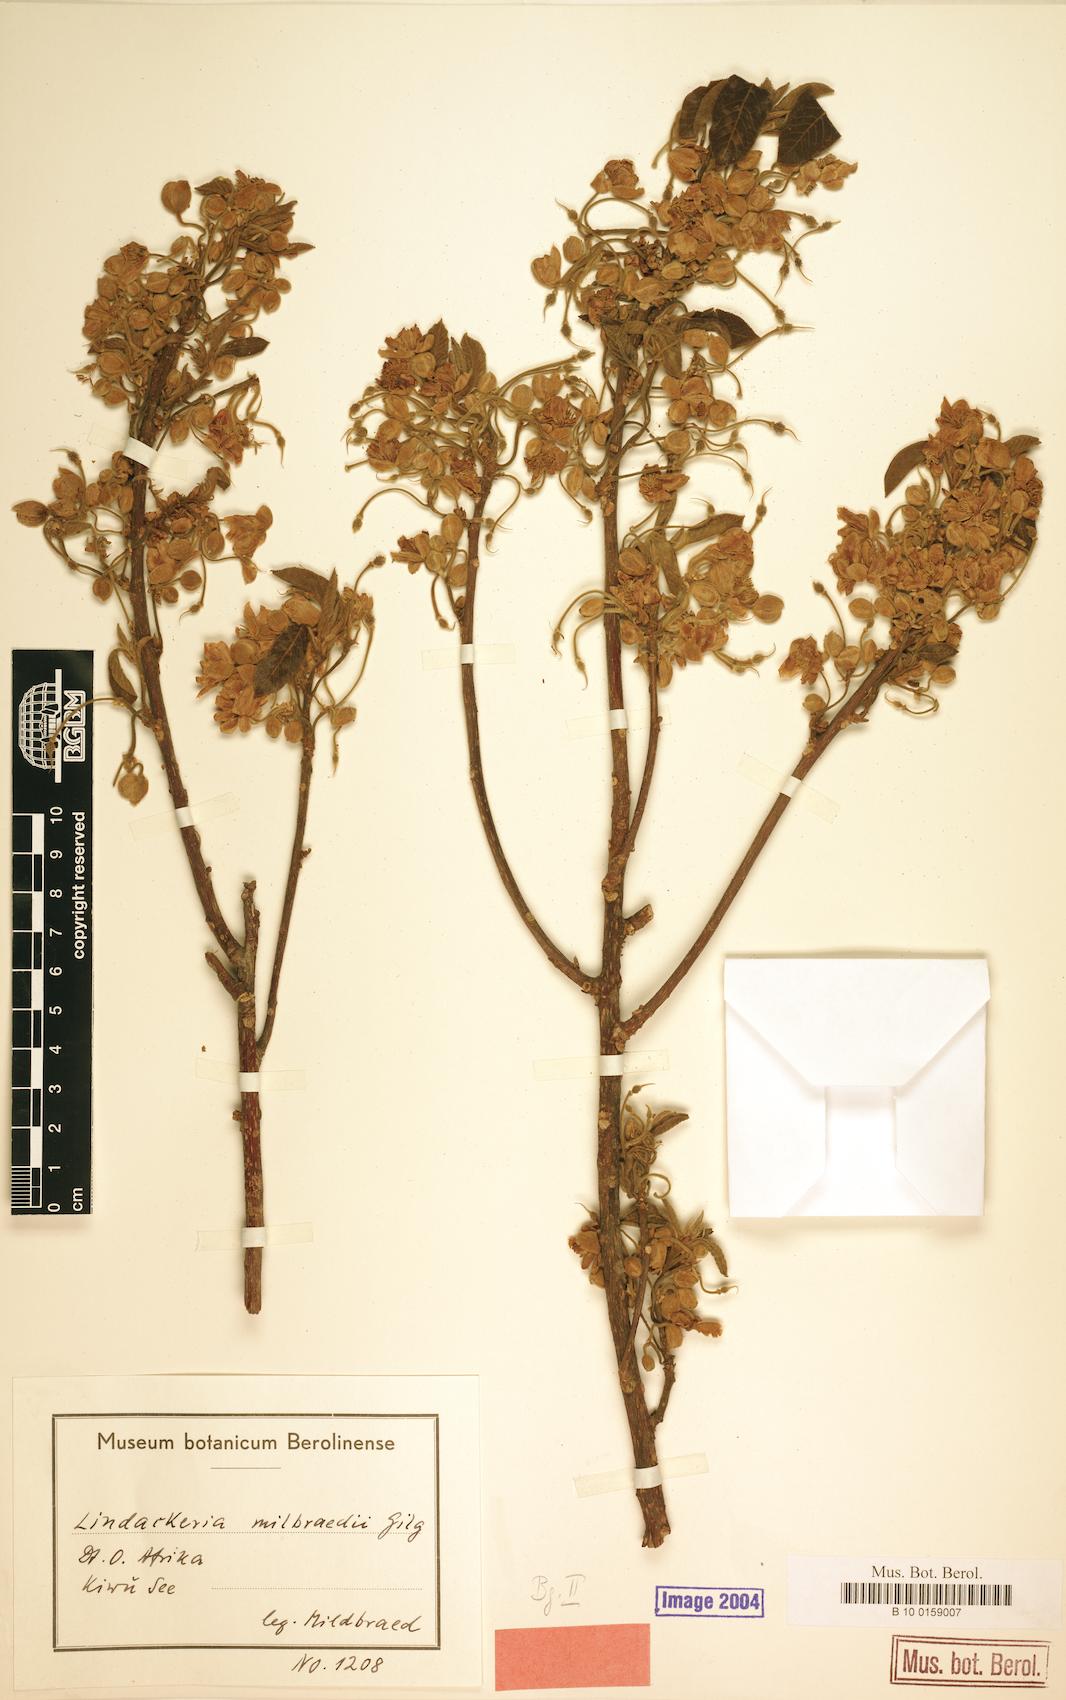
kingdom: Plantae
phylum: Tracheophyta
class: Magnoliopsida
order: Malpighiales
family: Achariaceae
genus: Lindackeria
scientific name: Lindackeria bukobensis
